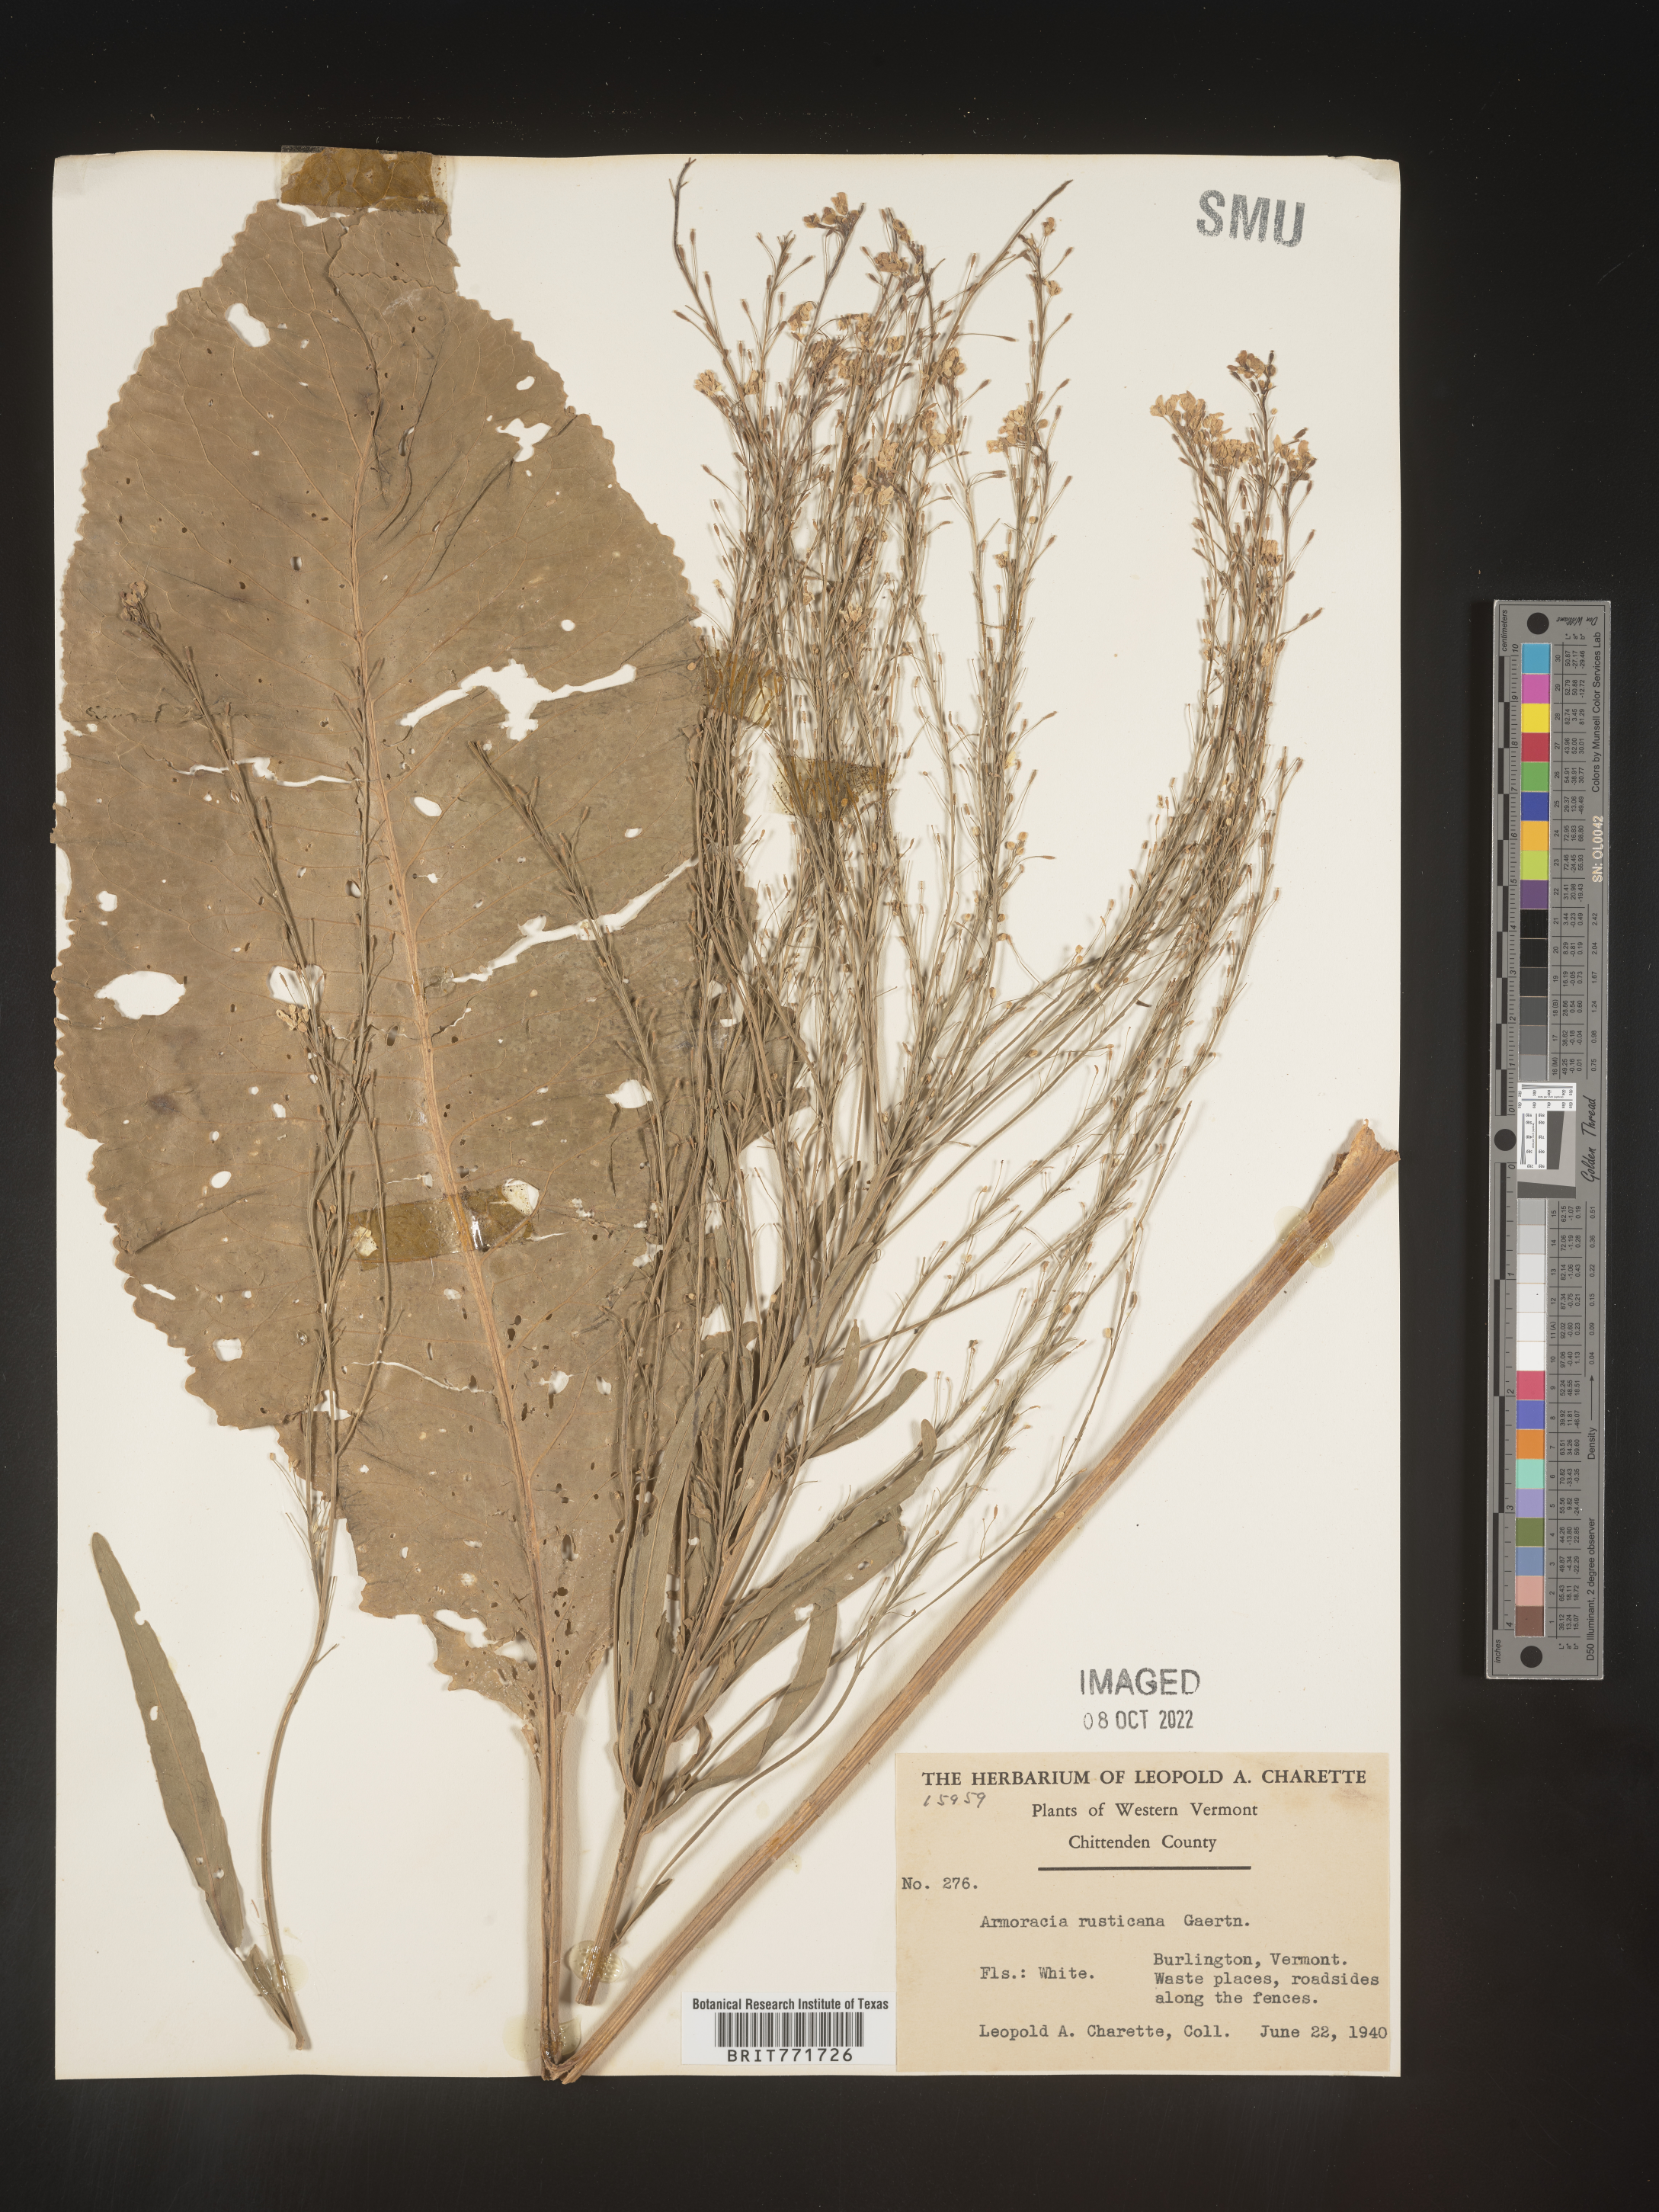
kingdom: Plantae
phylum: Tracheophyta
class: Magnoliopsida
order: Brassicales
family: Brassicaceae
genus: Armoracia
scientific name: Armoracia
